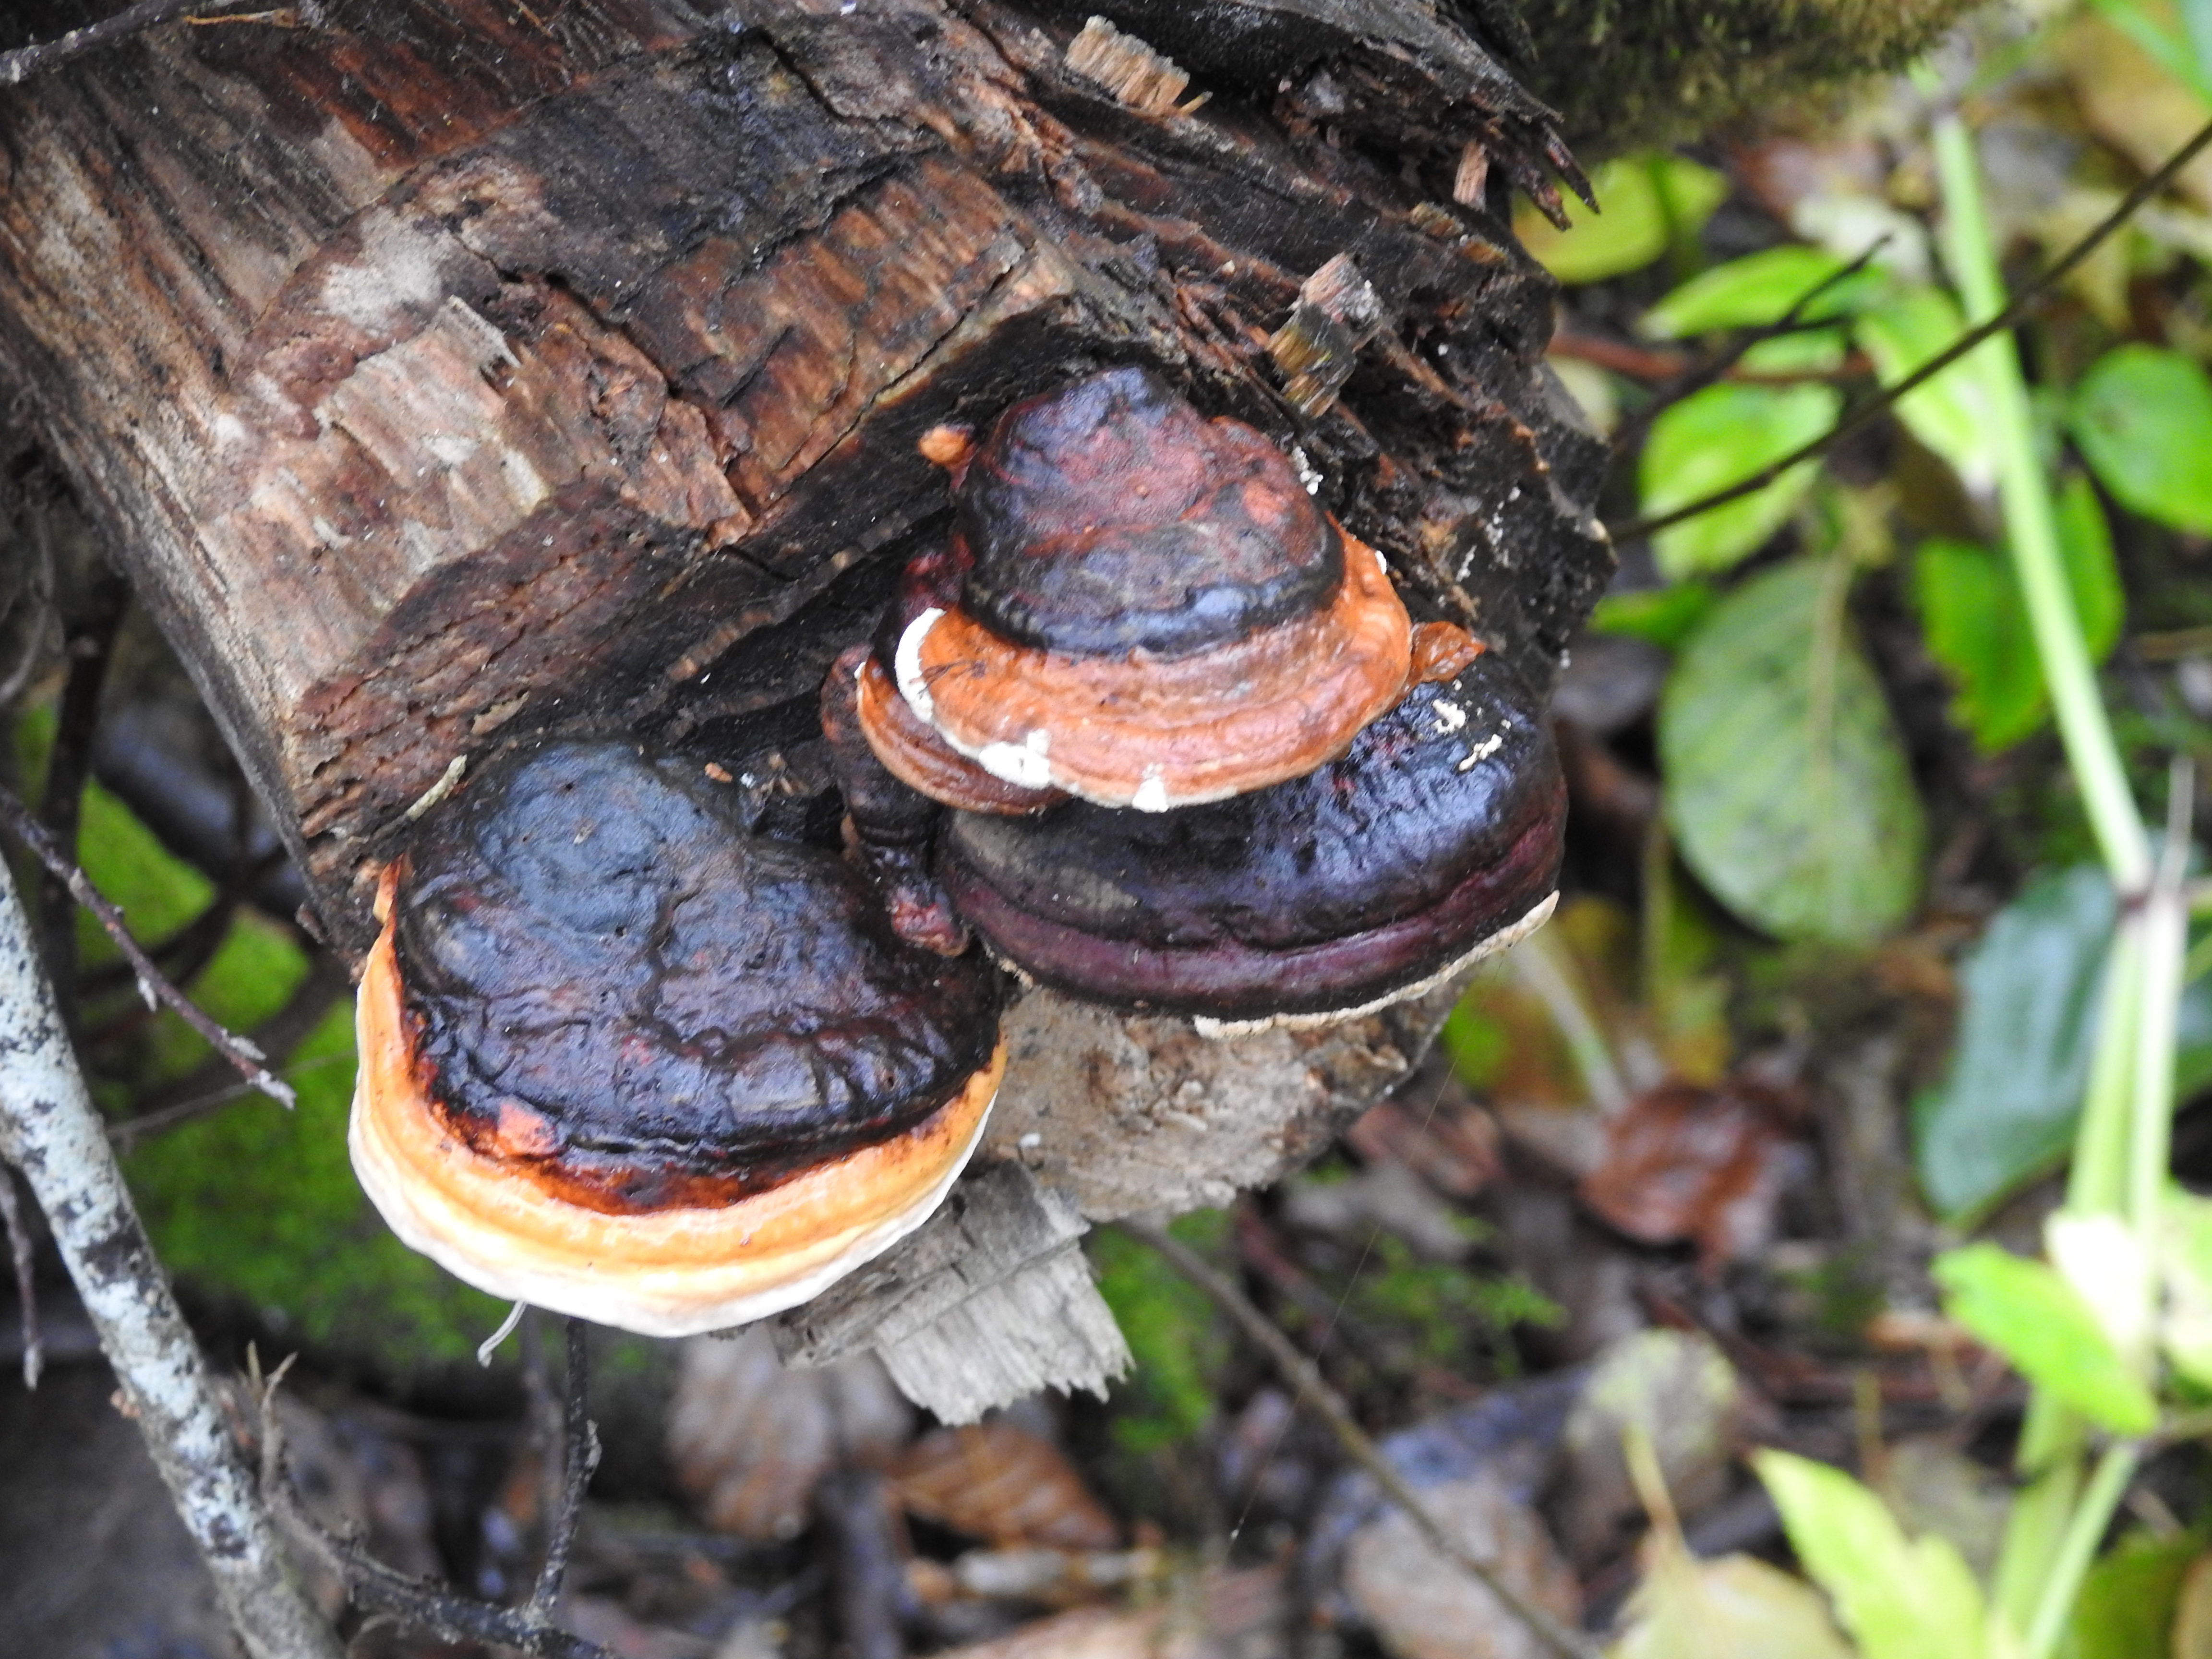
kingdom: Fungi
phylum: Basidiomycota
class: Agaricomycetes
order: Polyporales
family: Fomitopsidaceae
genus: Fomitopsis
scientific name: Fomitopsis pinicola
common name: Red-belted bracket
